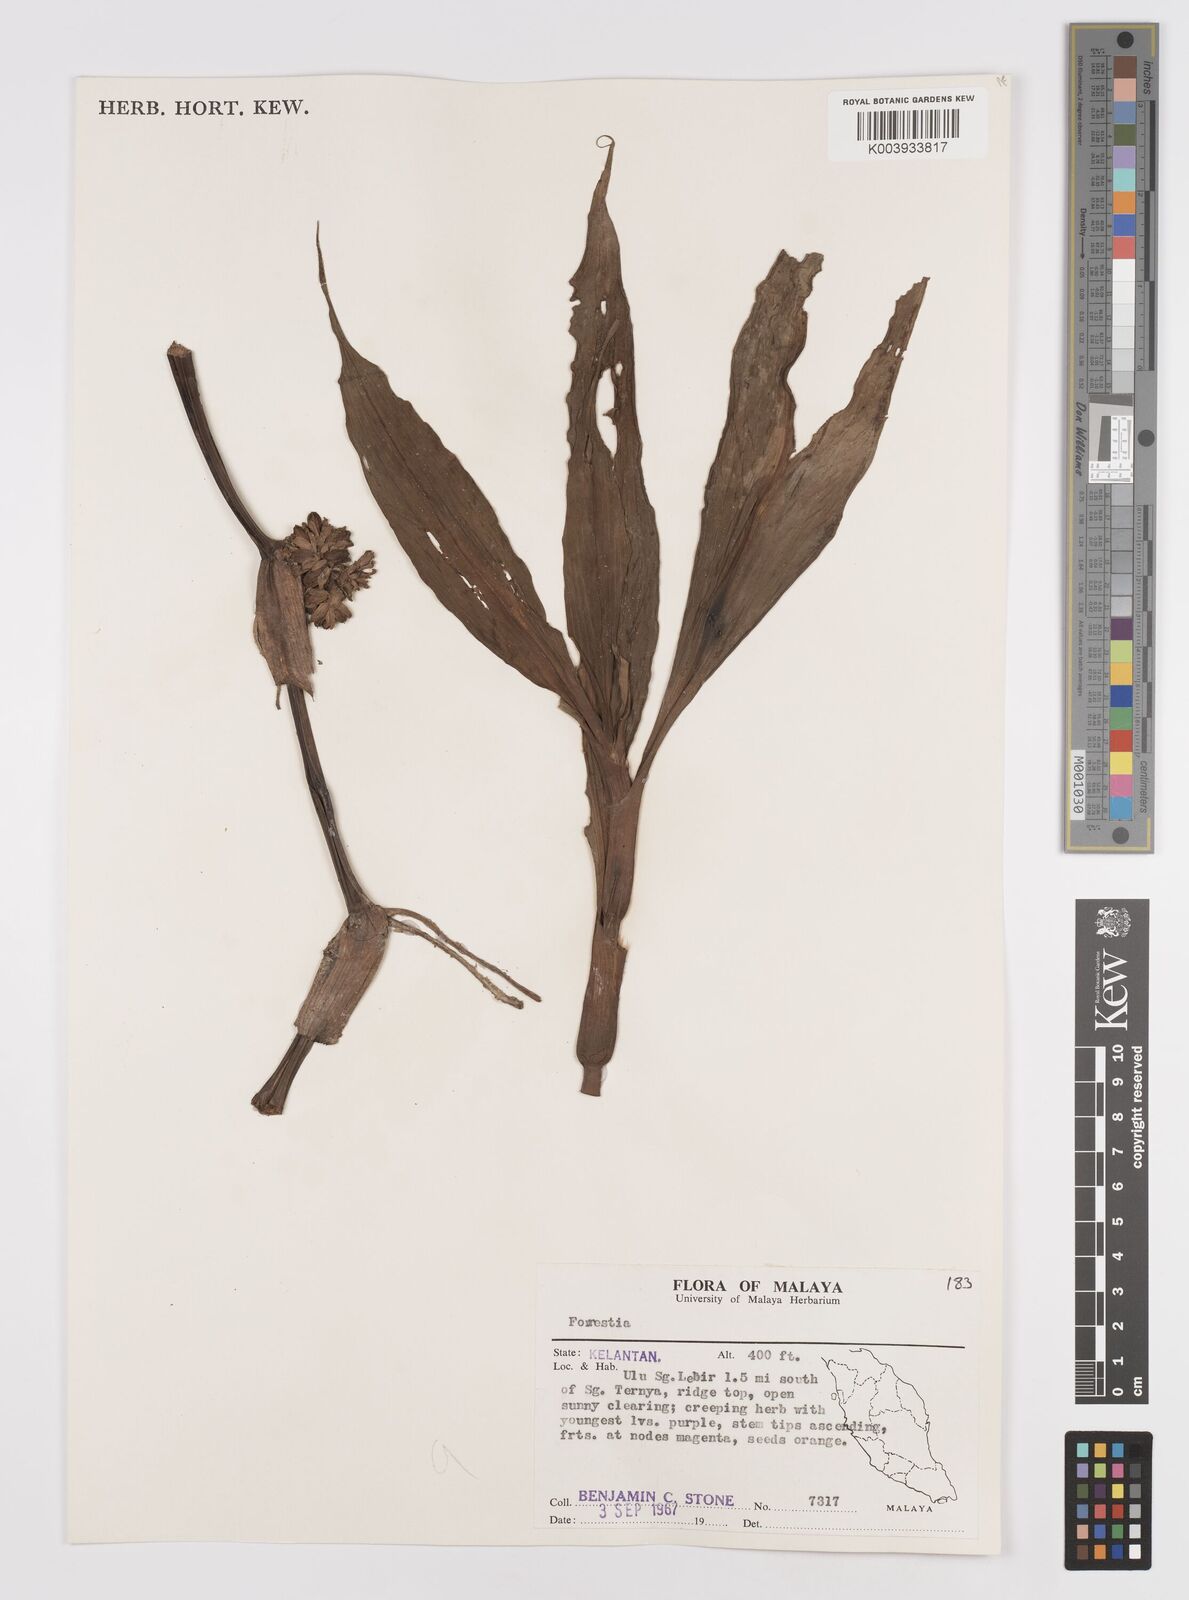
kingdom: Plantae
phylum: Tracheophyta
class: Liliopsida
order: Commelinales
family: Commelinaceae
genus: Amischotolype
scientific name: Amischotolype
